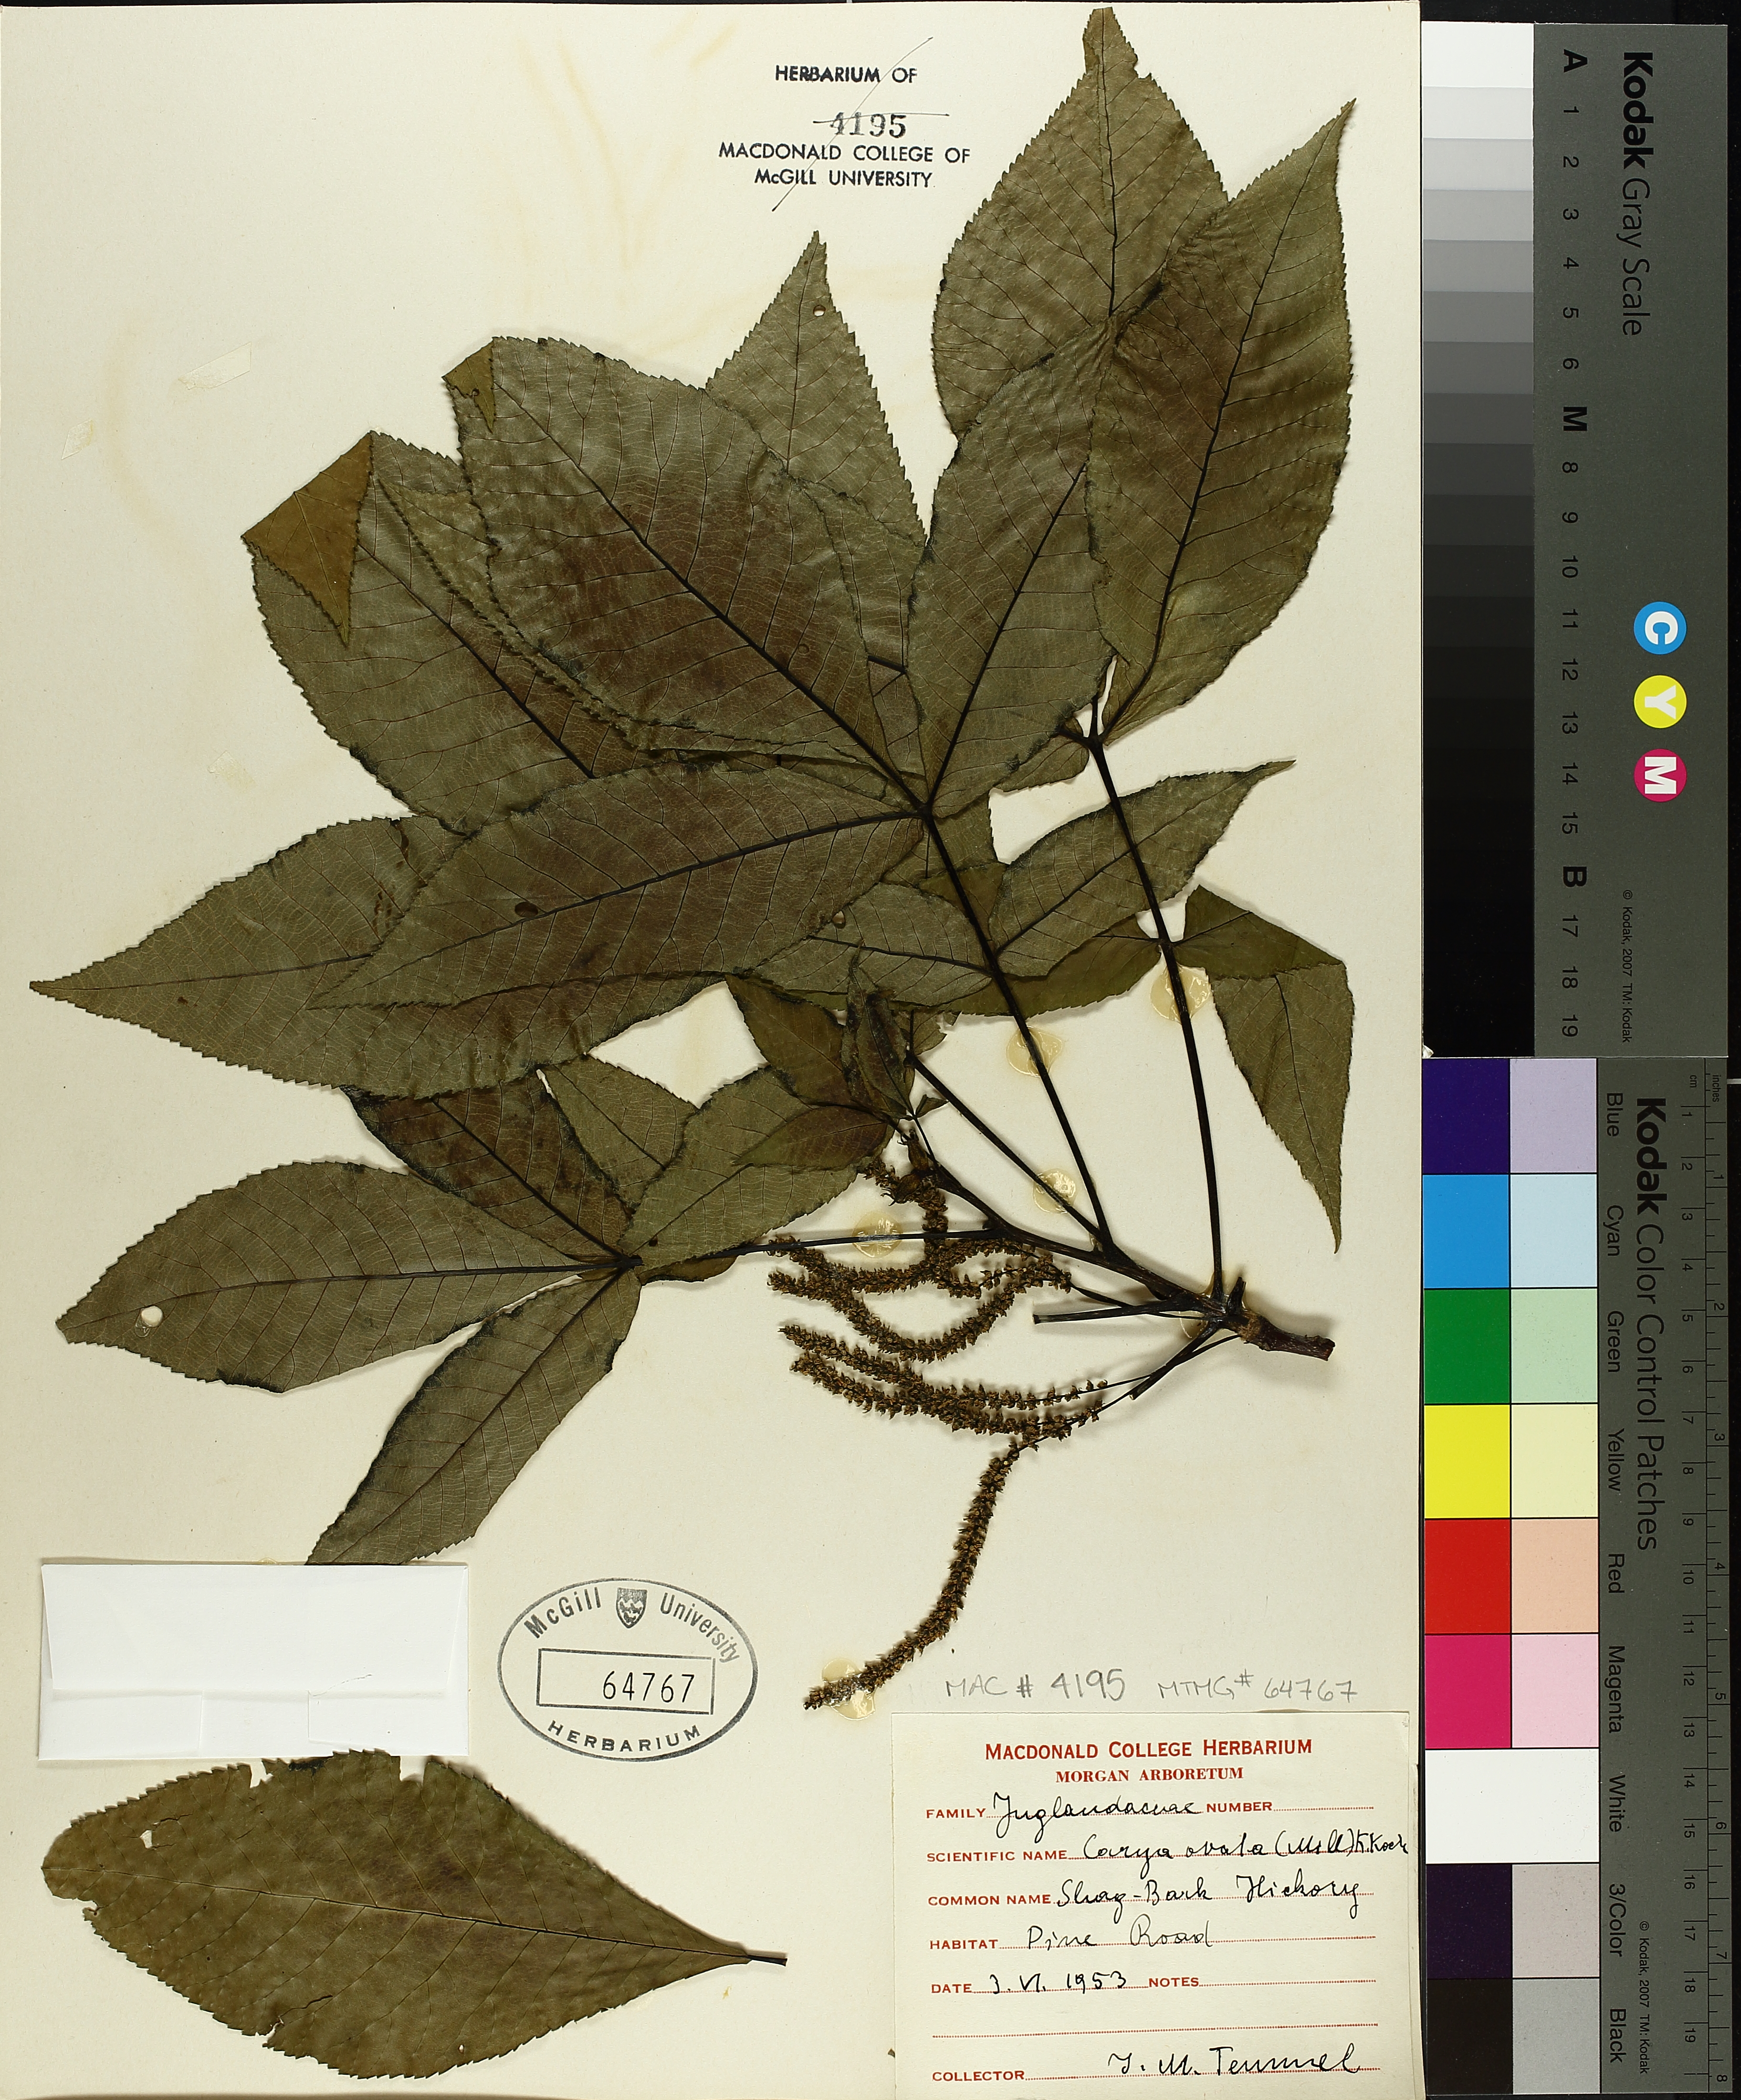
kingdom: Plantae
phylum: Tracheophyta
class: Magnoliopsida
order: Fagales
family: Juglandaceae
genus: Carya
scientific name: Carya ovata
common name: Shagbark hickory
